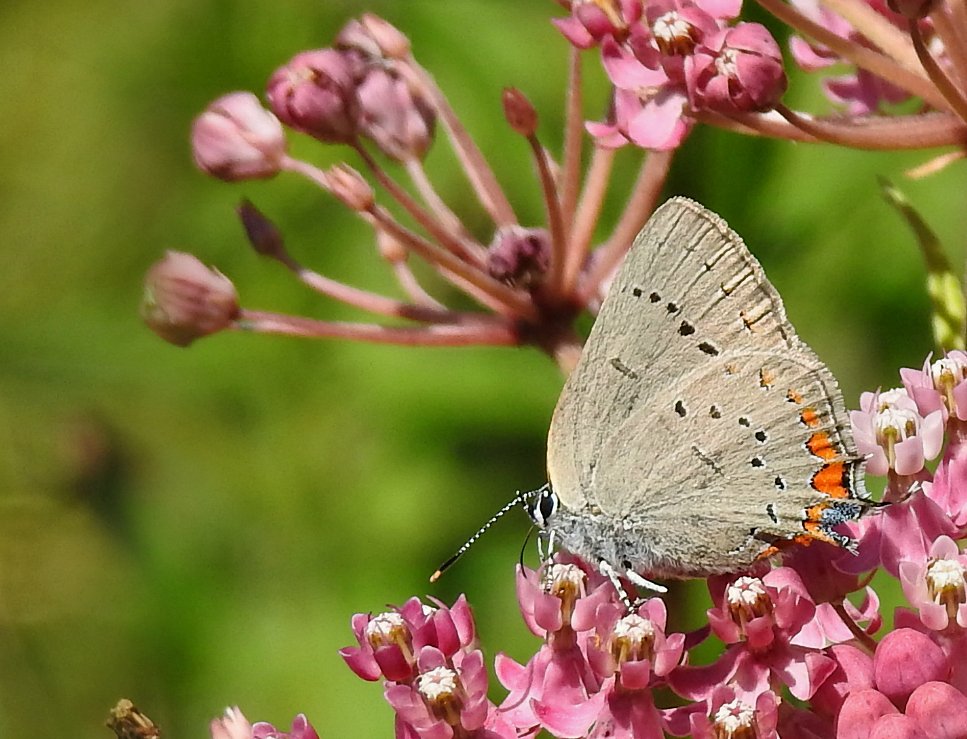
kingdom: Animalia
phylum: Arthropoda
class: Insecta
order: Lepidoptera
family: Lycaenidae
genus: Strymon
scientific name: Strymon acadica
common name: Acadian Hairstreak
